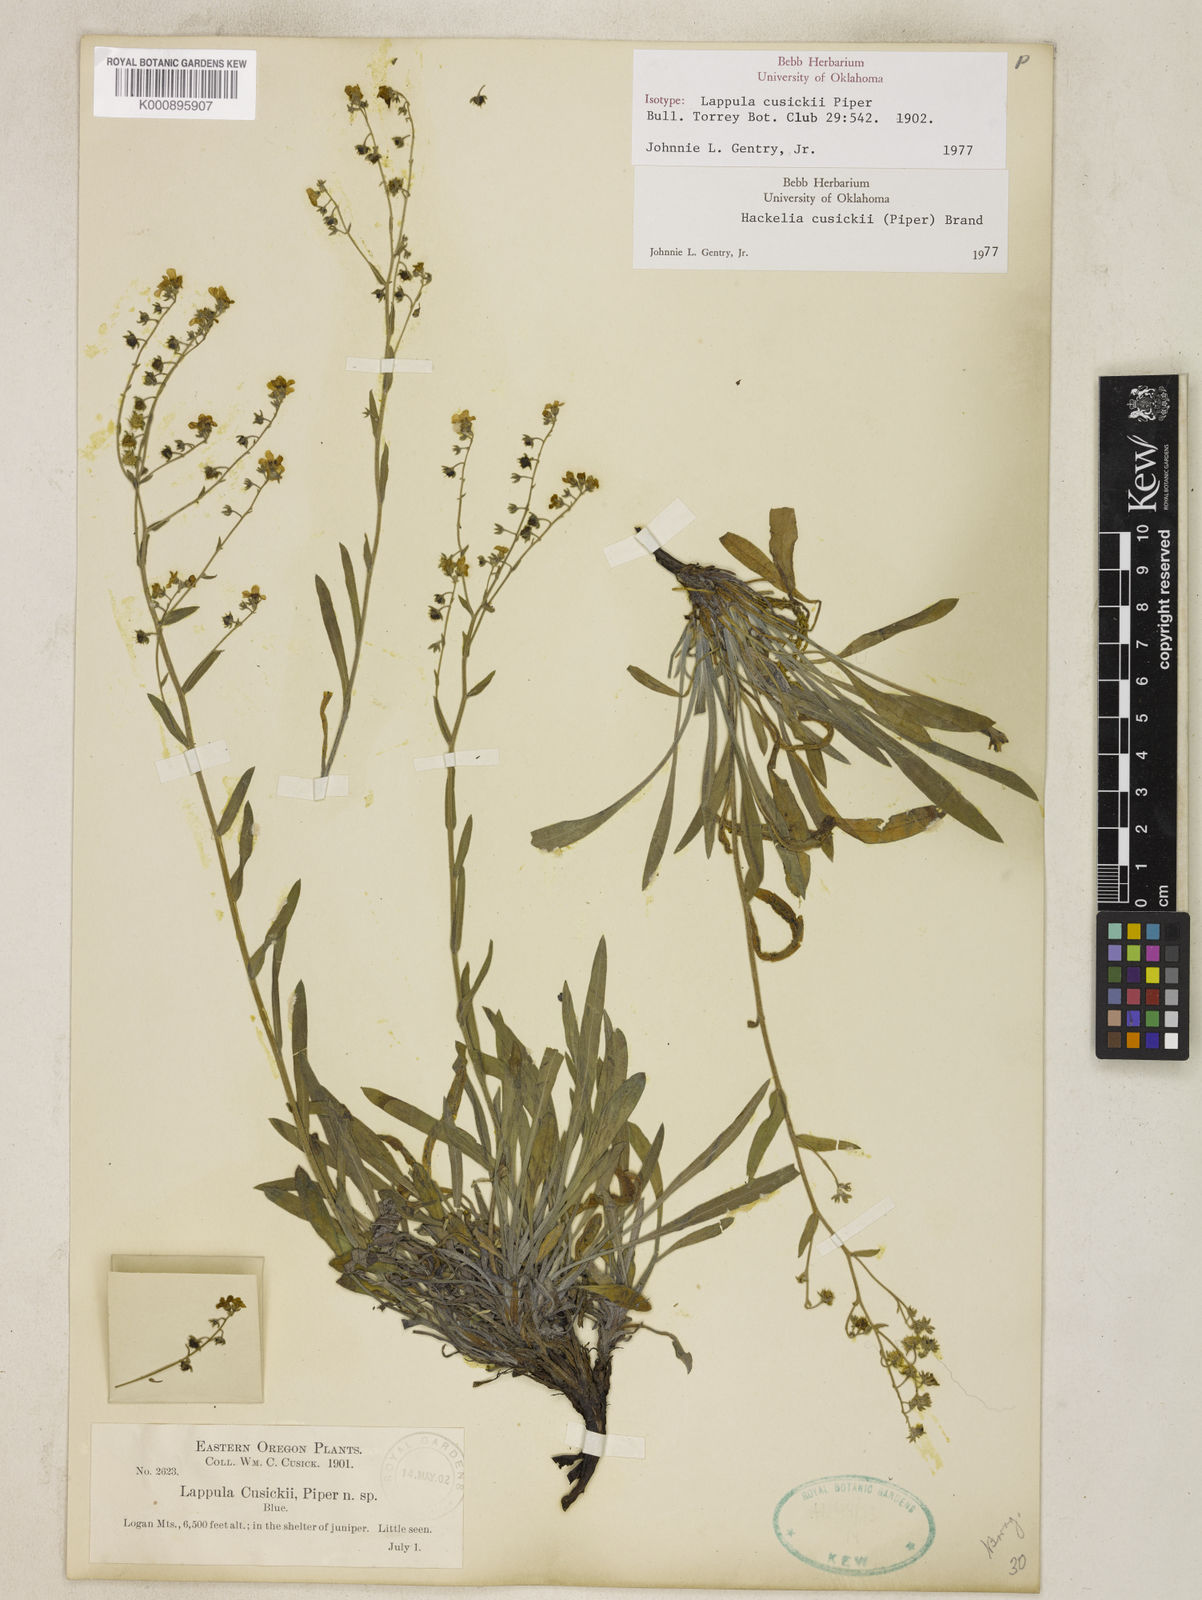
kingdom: Plantae
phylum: Tracheophyta
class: Magnoliopsida
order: Boraginales
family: Boraginaceae
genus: Hackelia
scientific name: Hackelia cusickii
